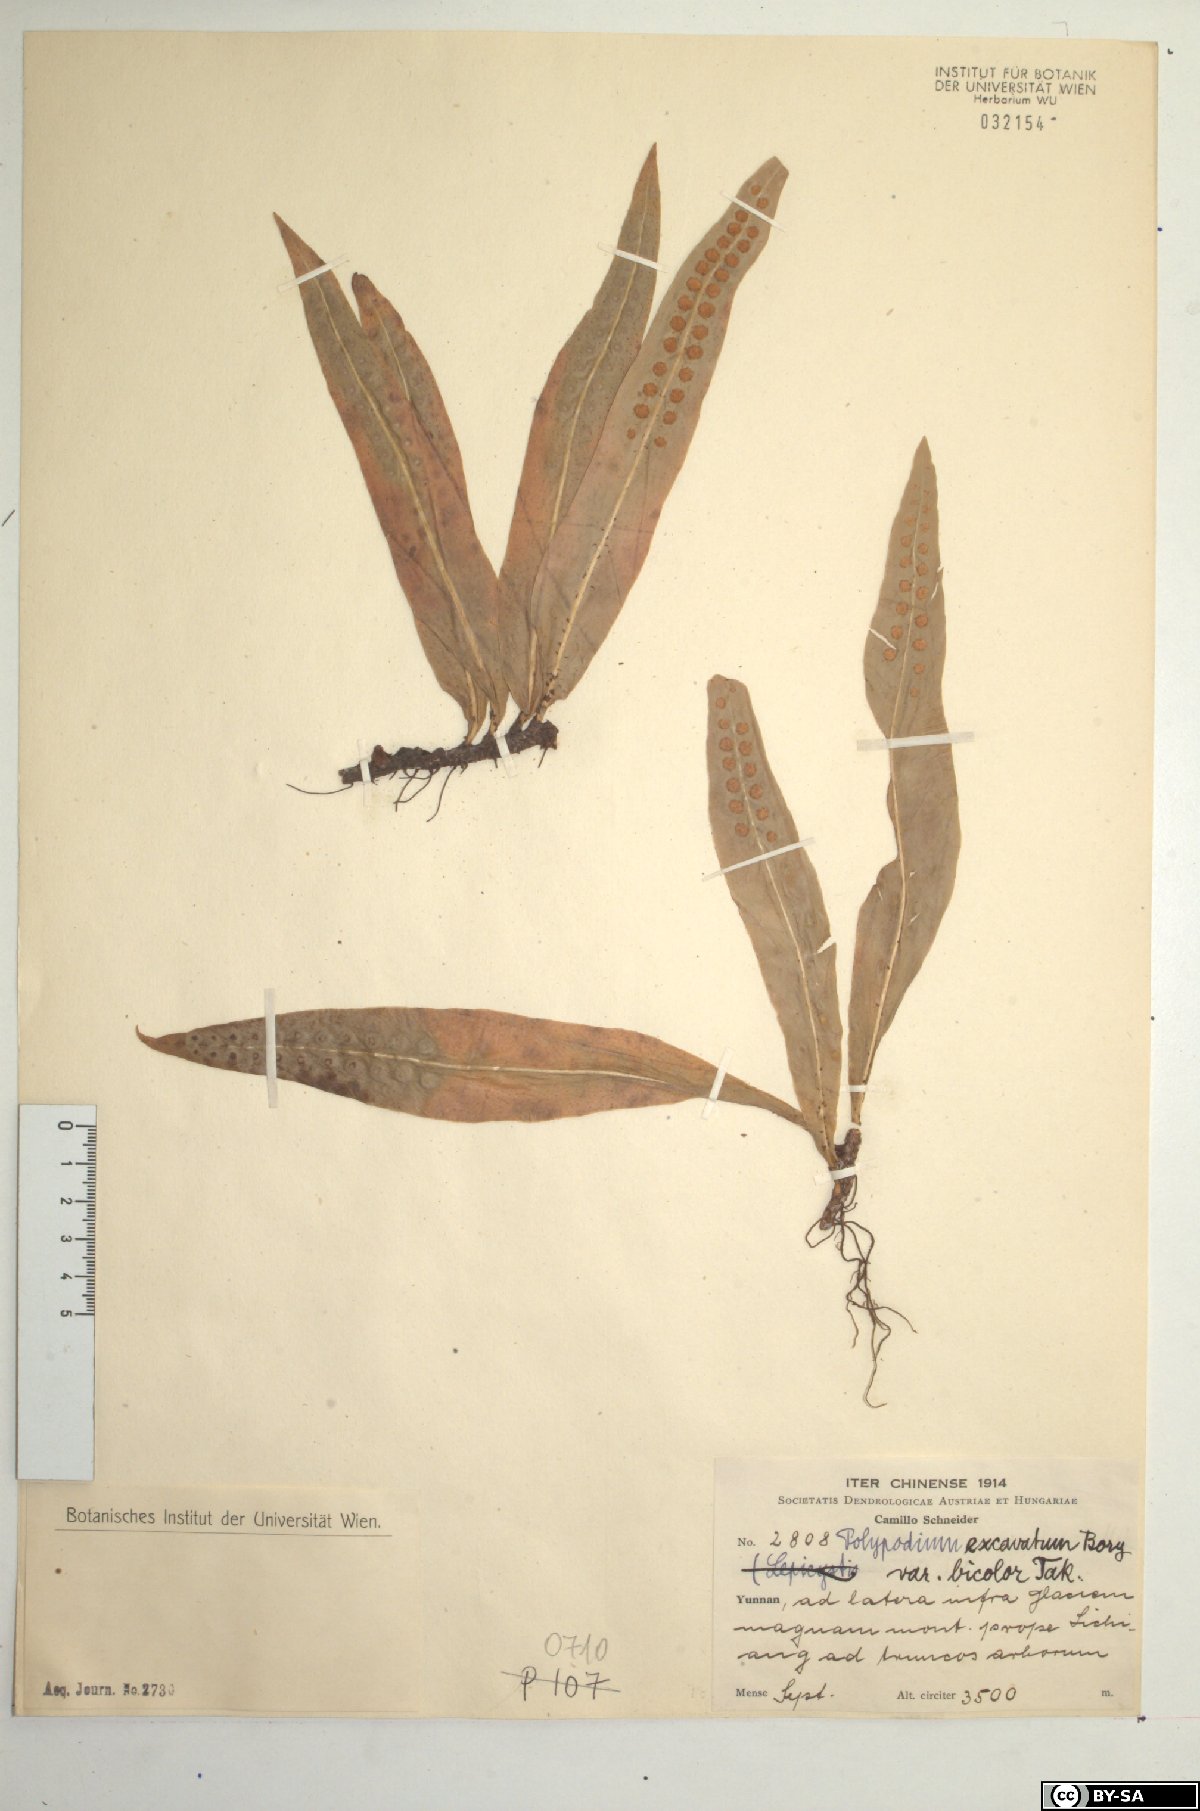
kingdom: Plantae
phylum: Tracheophyta
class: Polypodiopsida
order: Polypodiales
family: Polypodiaceae
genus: Lepisorus
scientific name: Lepisorus bicolor
